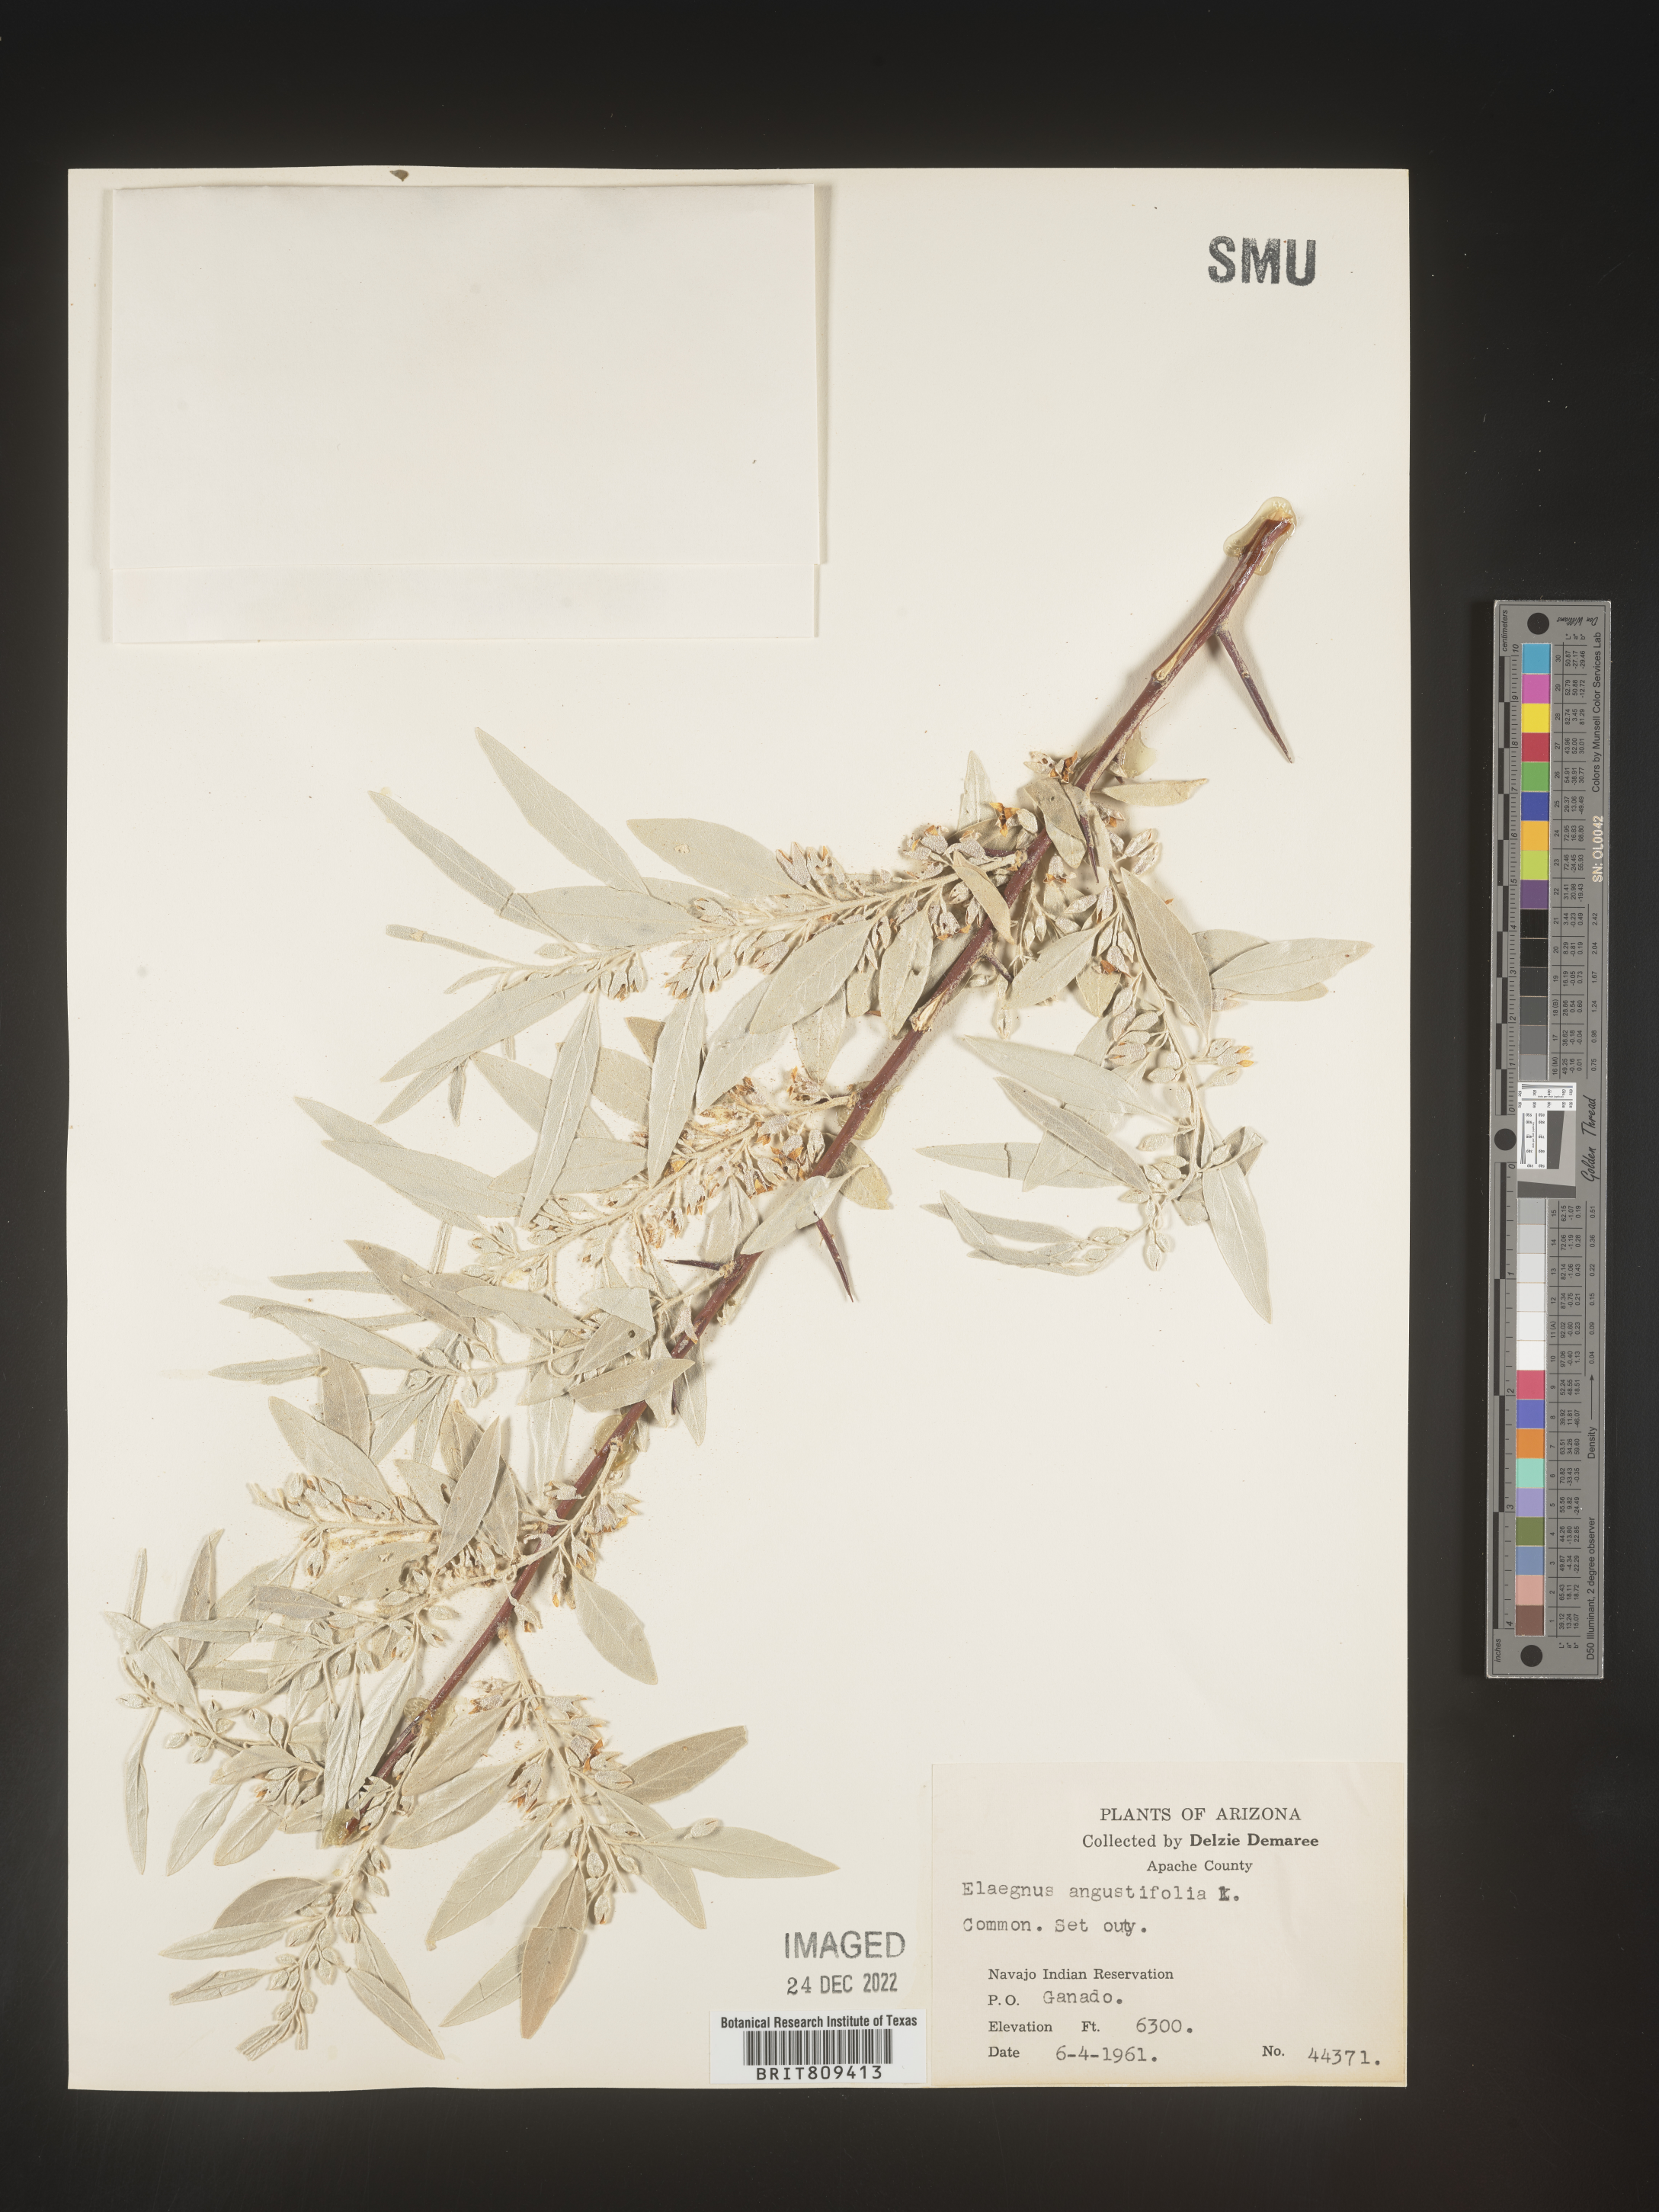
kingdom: Plantae
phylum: Tracheophyta
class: Magnoliopsida
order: Rosales
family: Elaeagnaceae
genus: Elaeagnus
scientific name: Elaeagnus
